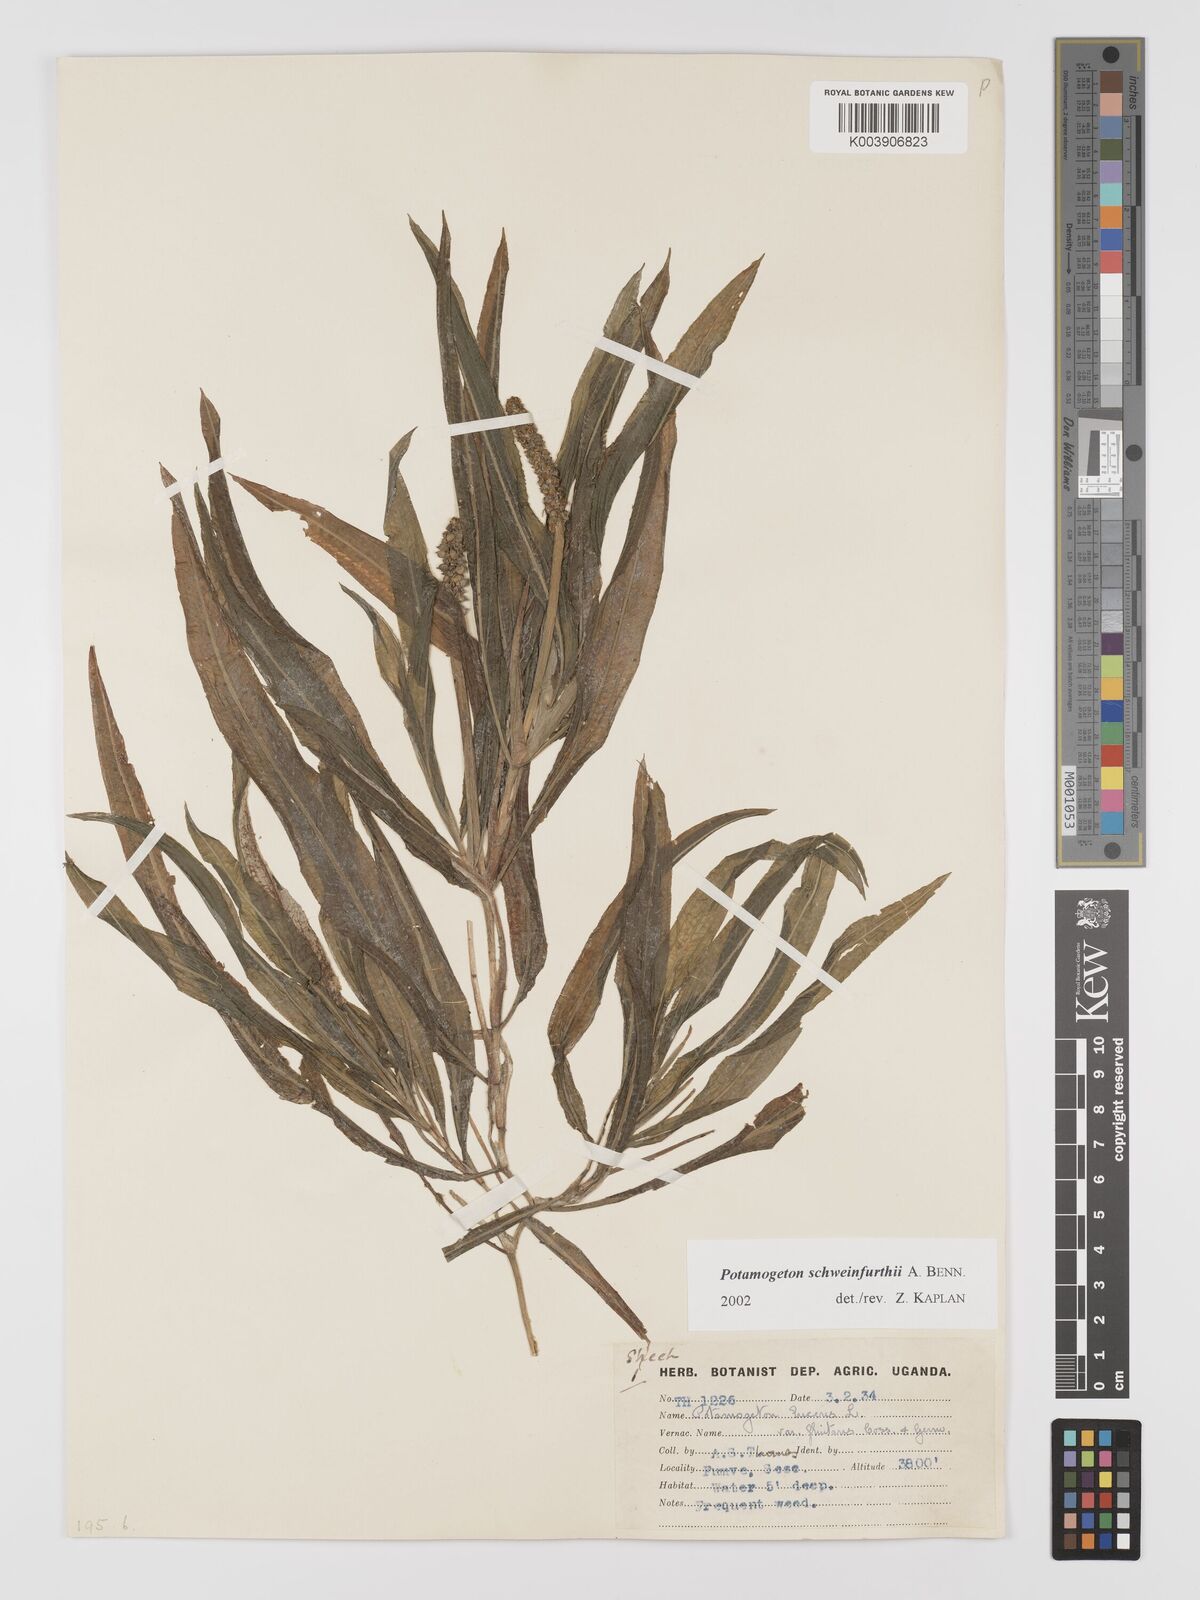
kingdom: Plantae
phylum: Tracheophyta
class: Liliopsida
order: Alismatales
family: Potamogetonaceae
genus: Potamogeton
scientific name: Potamogeton
